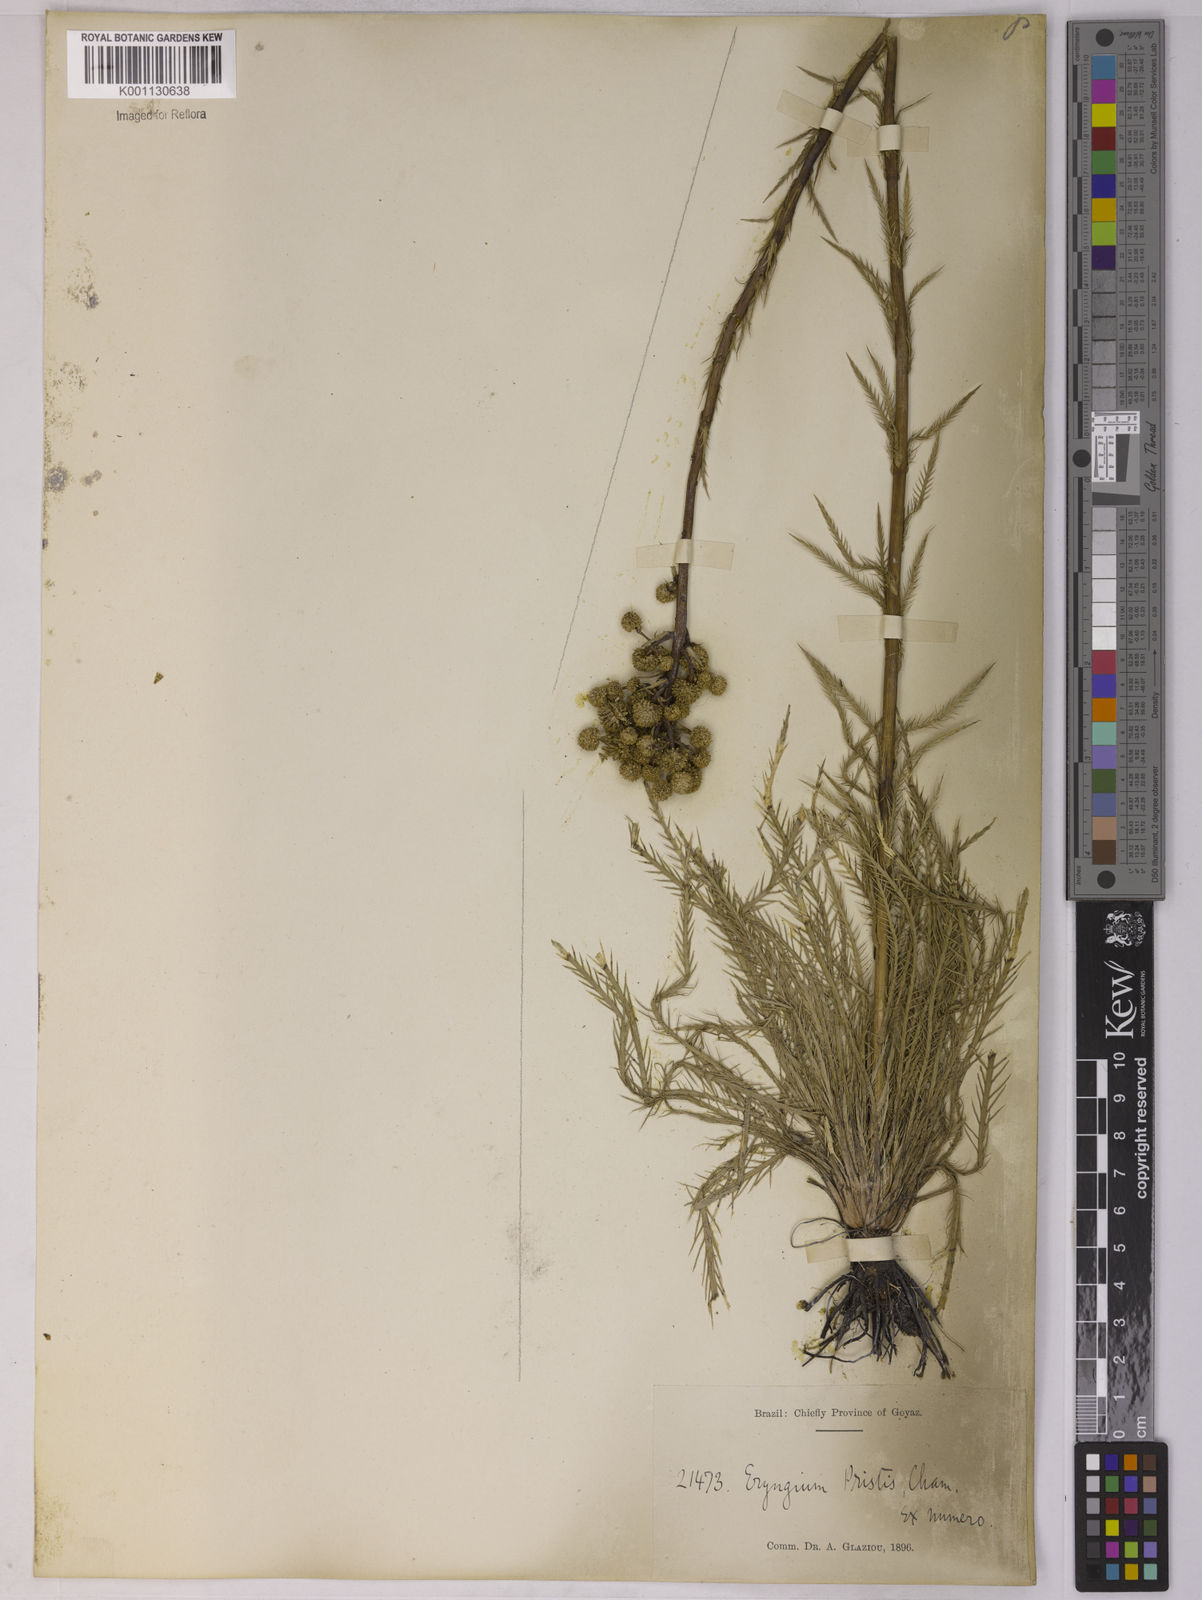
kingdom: Plantae
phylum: Tracheophyta
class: Magnoliopsida
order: Apiales
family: Apiaceae
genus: Eryngium
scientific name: Eryngium pristis
